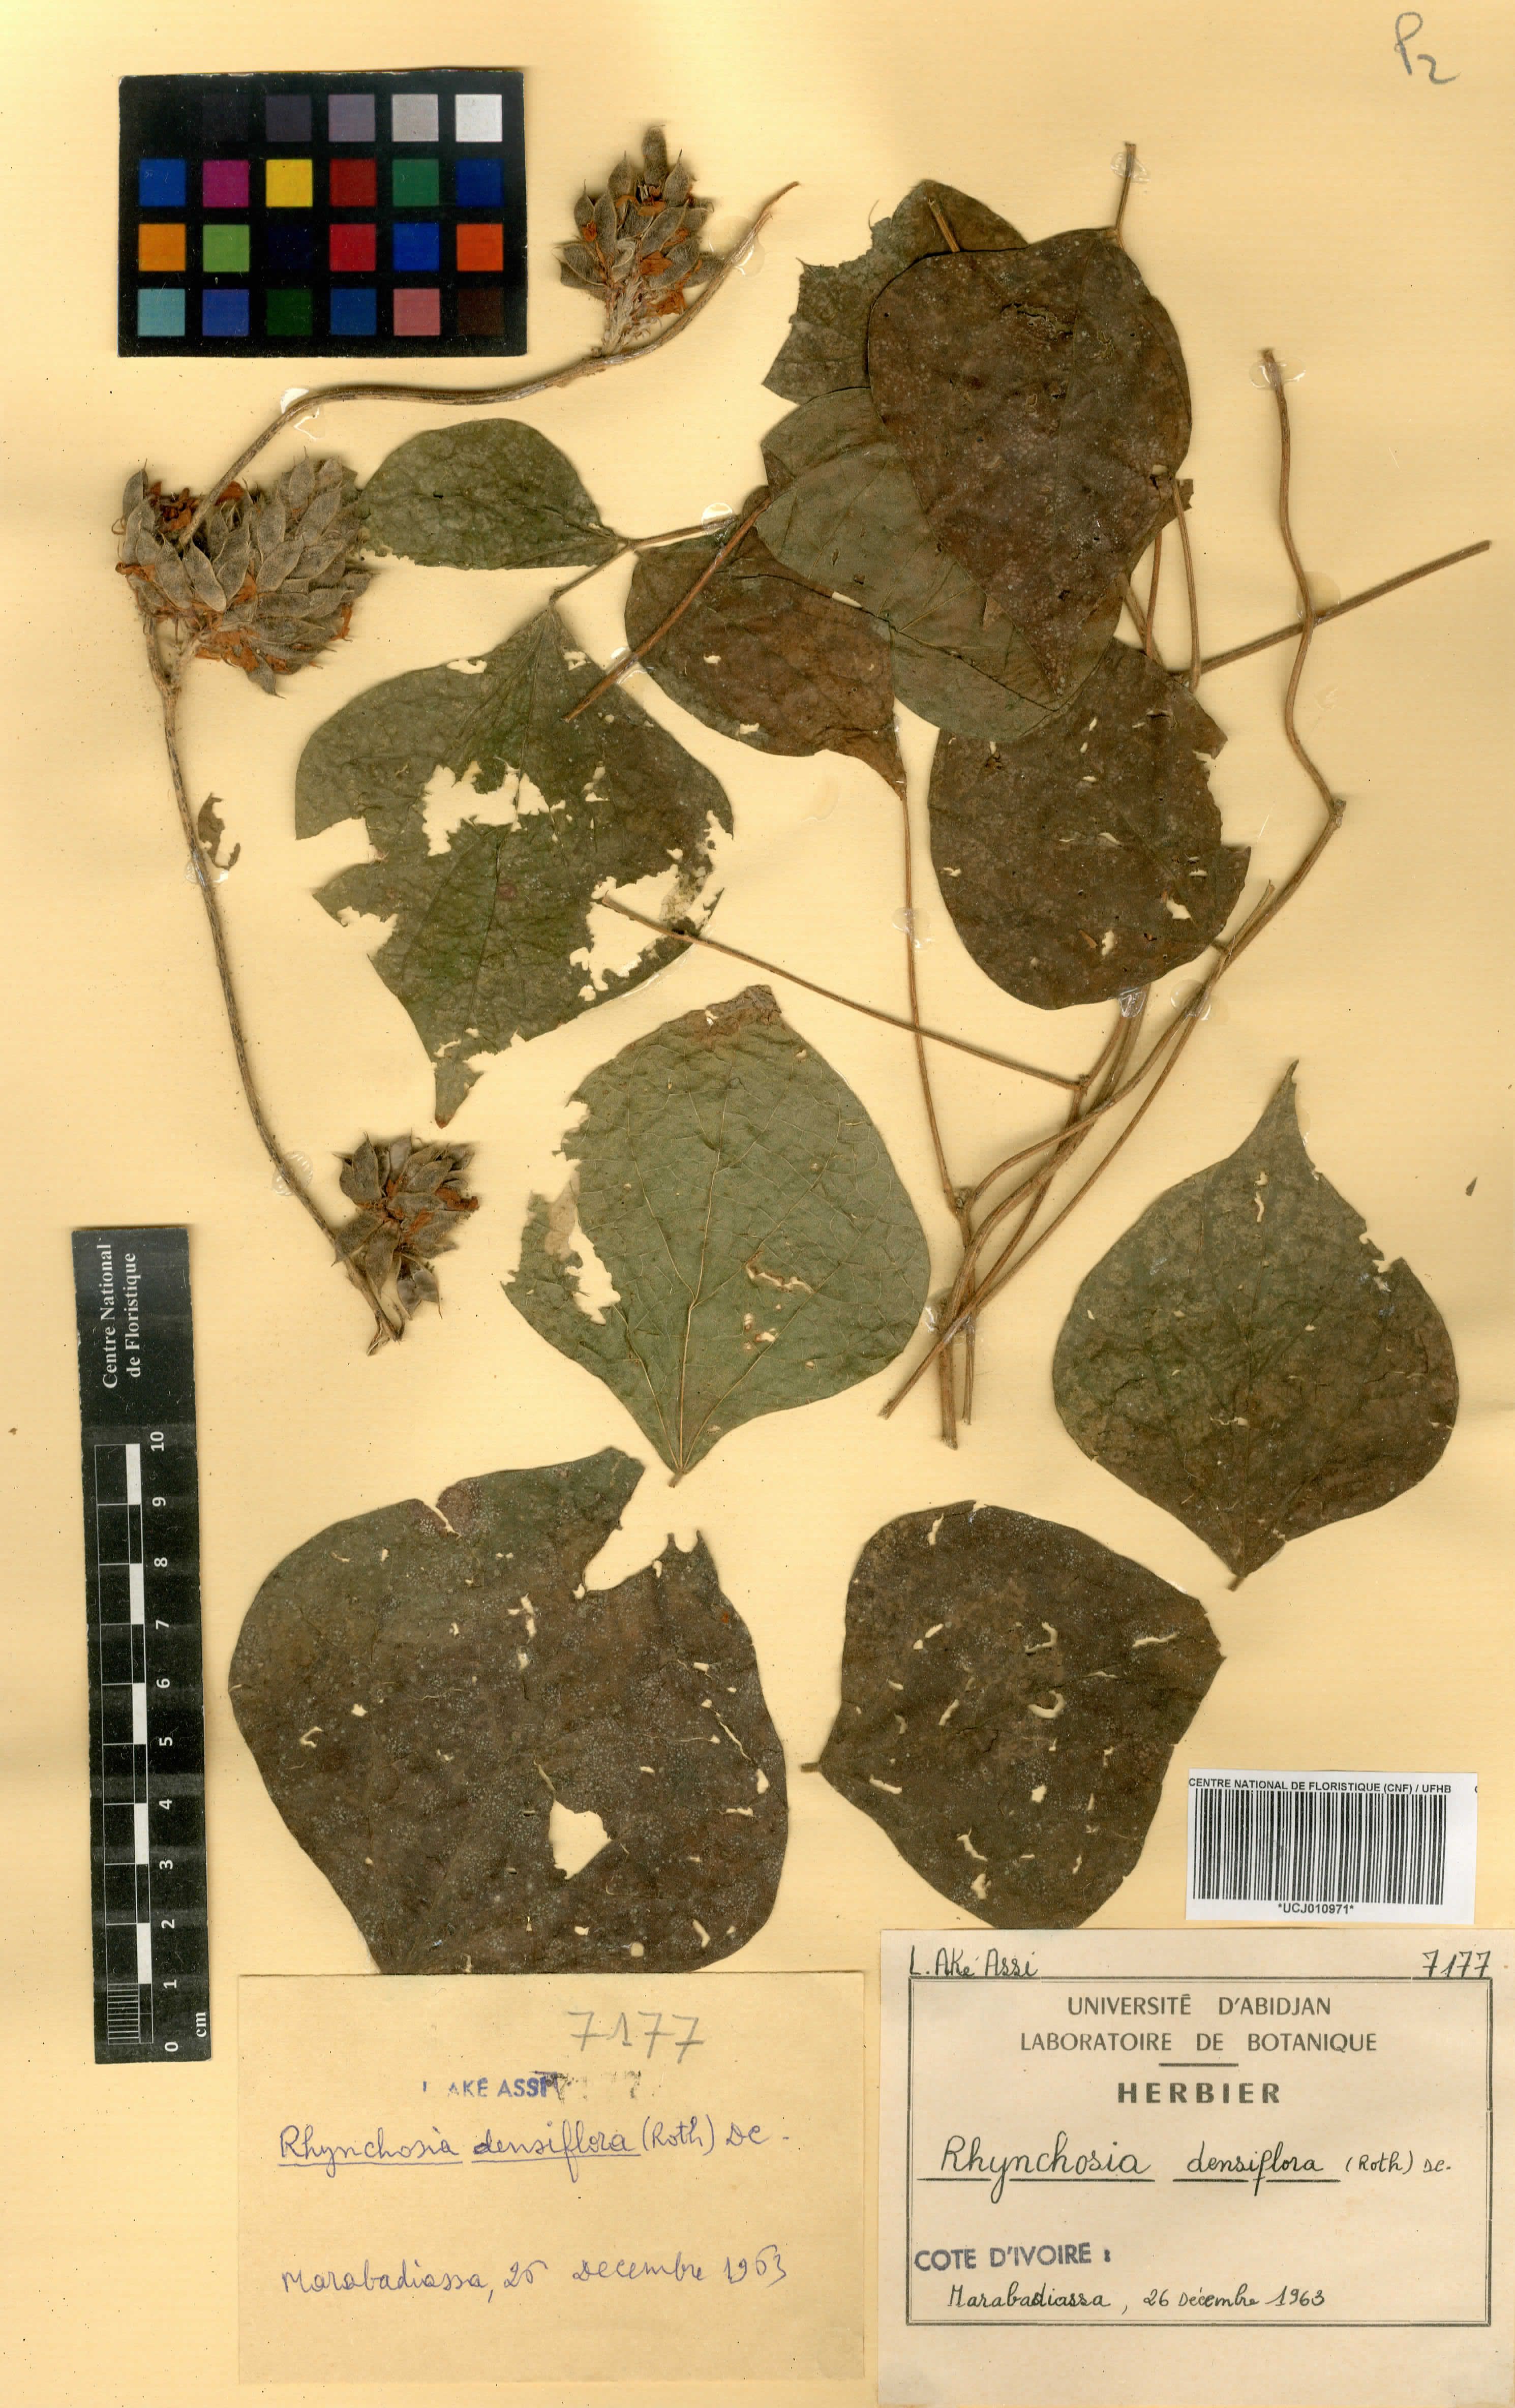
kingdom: Plantae
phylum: Tracheophyta
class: Magnoliopsida
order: Fabales
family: Fabaceae
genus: Rhynchosia
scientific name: Rhynchosia densiflora
